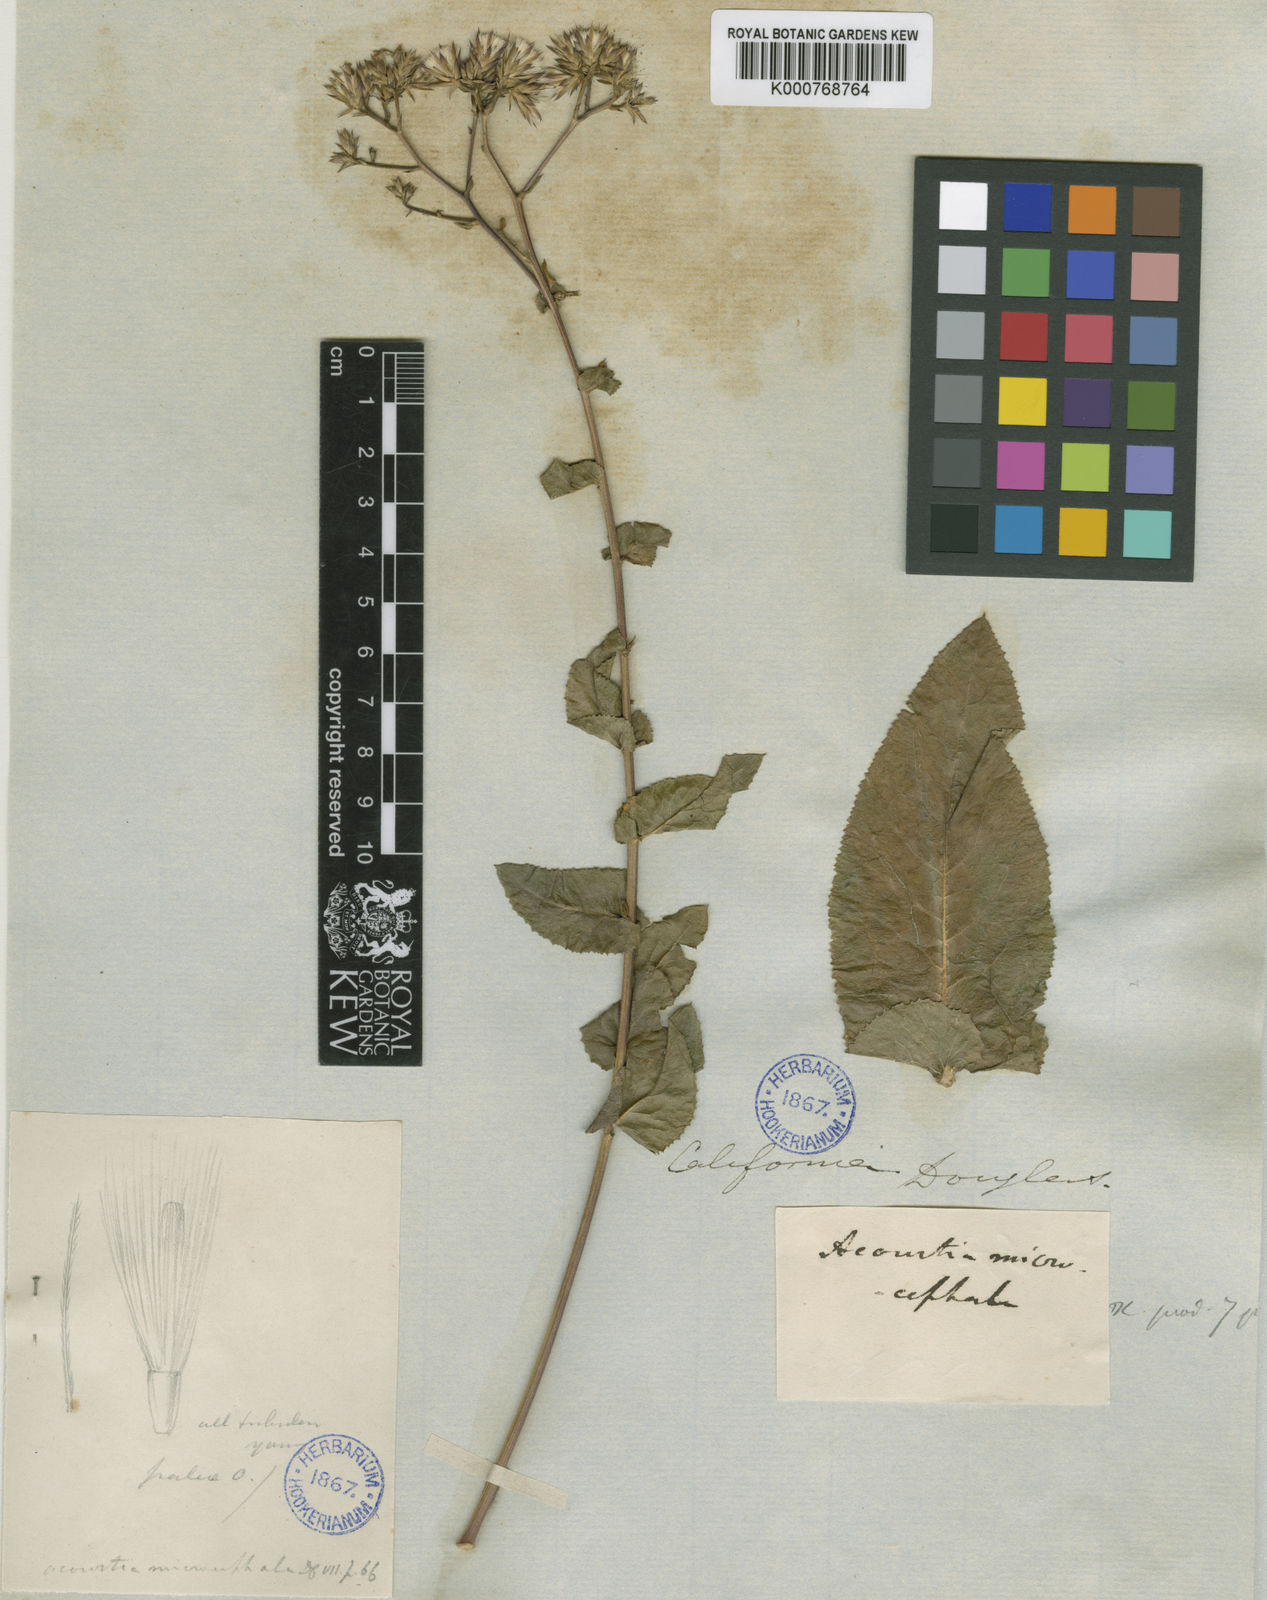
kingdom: Plantae
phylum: Tracheophyta
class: Magnoliopsida
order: Asterales
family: Asteraceae
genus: Acourtia
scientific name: Acourtia microcephala
